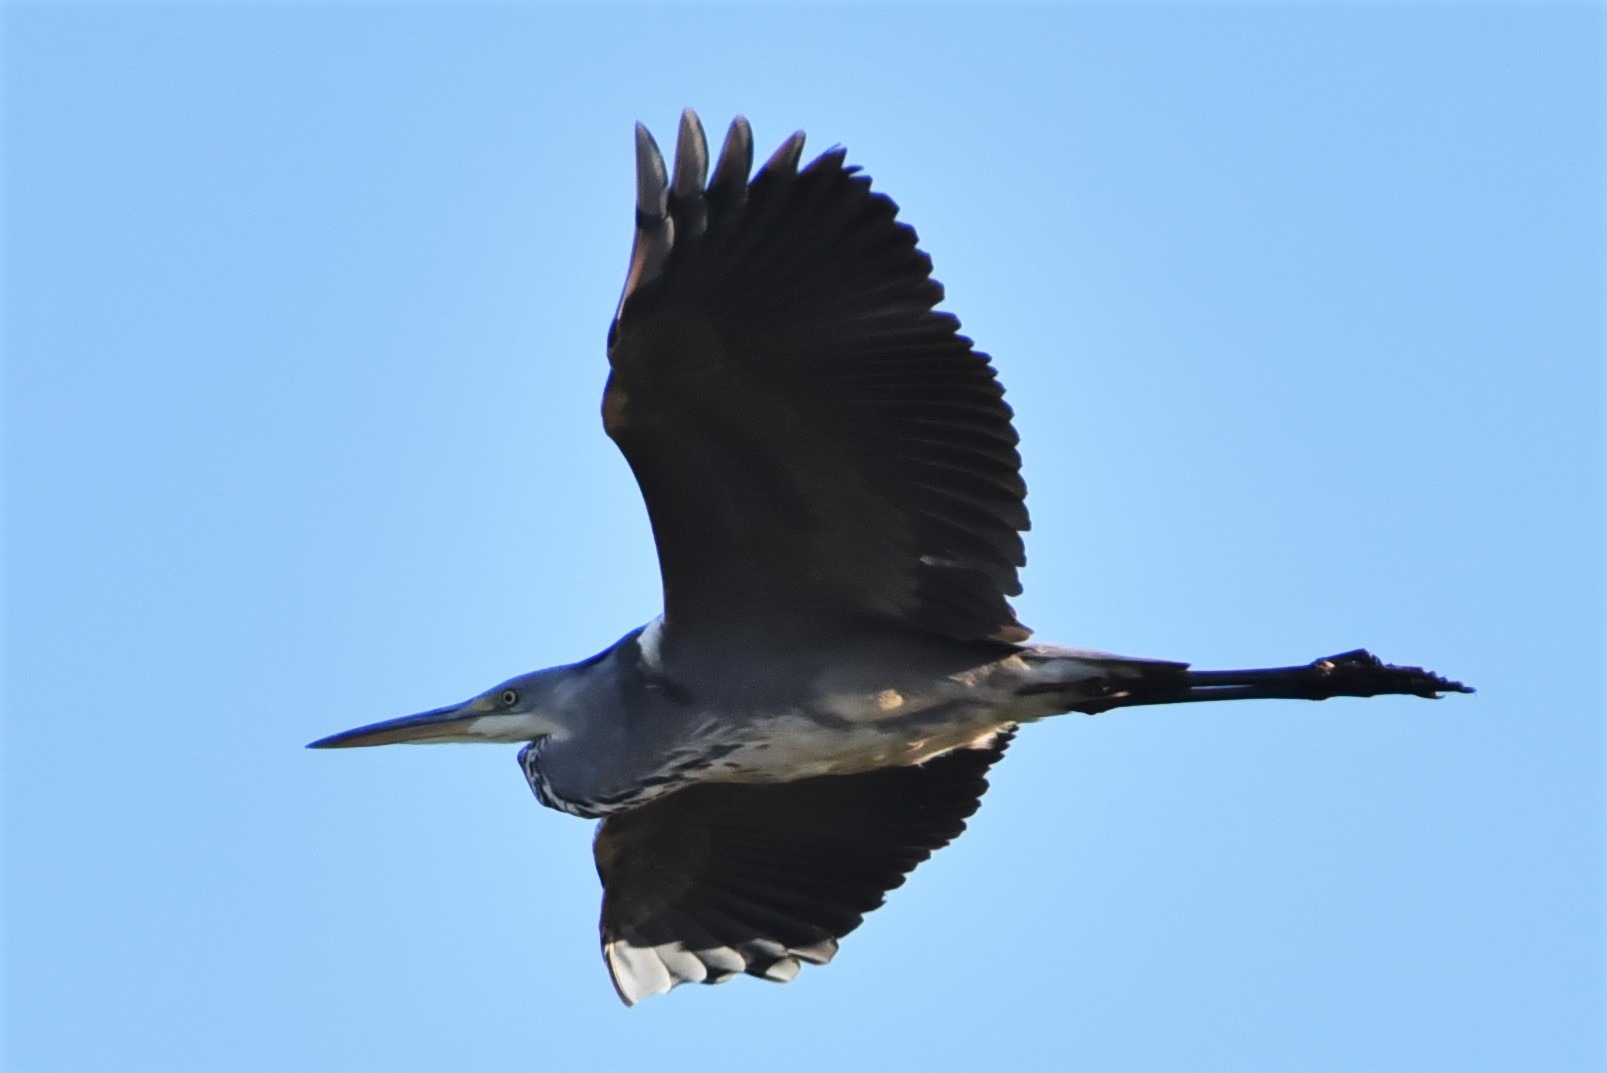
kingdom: Animalia
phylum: Chordata
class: Aves
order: Pelecaniformes
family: Ardeidae
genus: Ardea
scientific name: Ardea cinerea
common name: Fiskehejre
